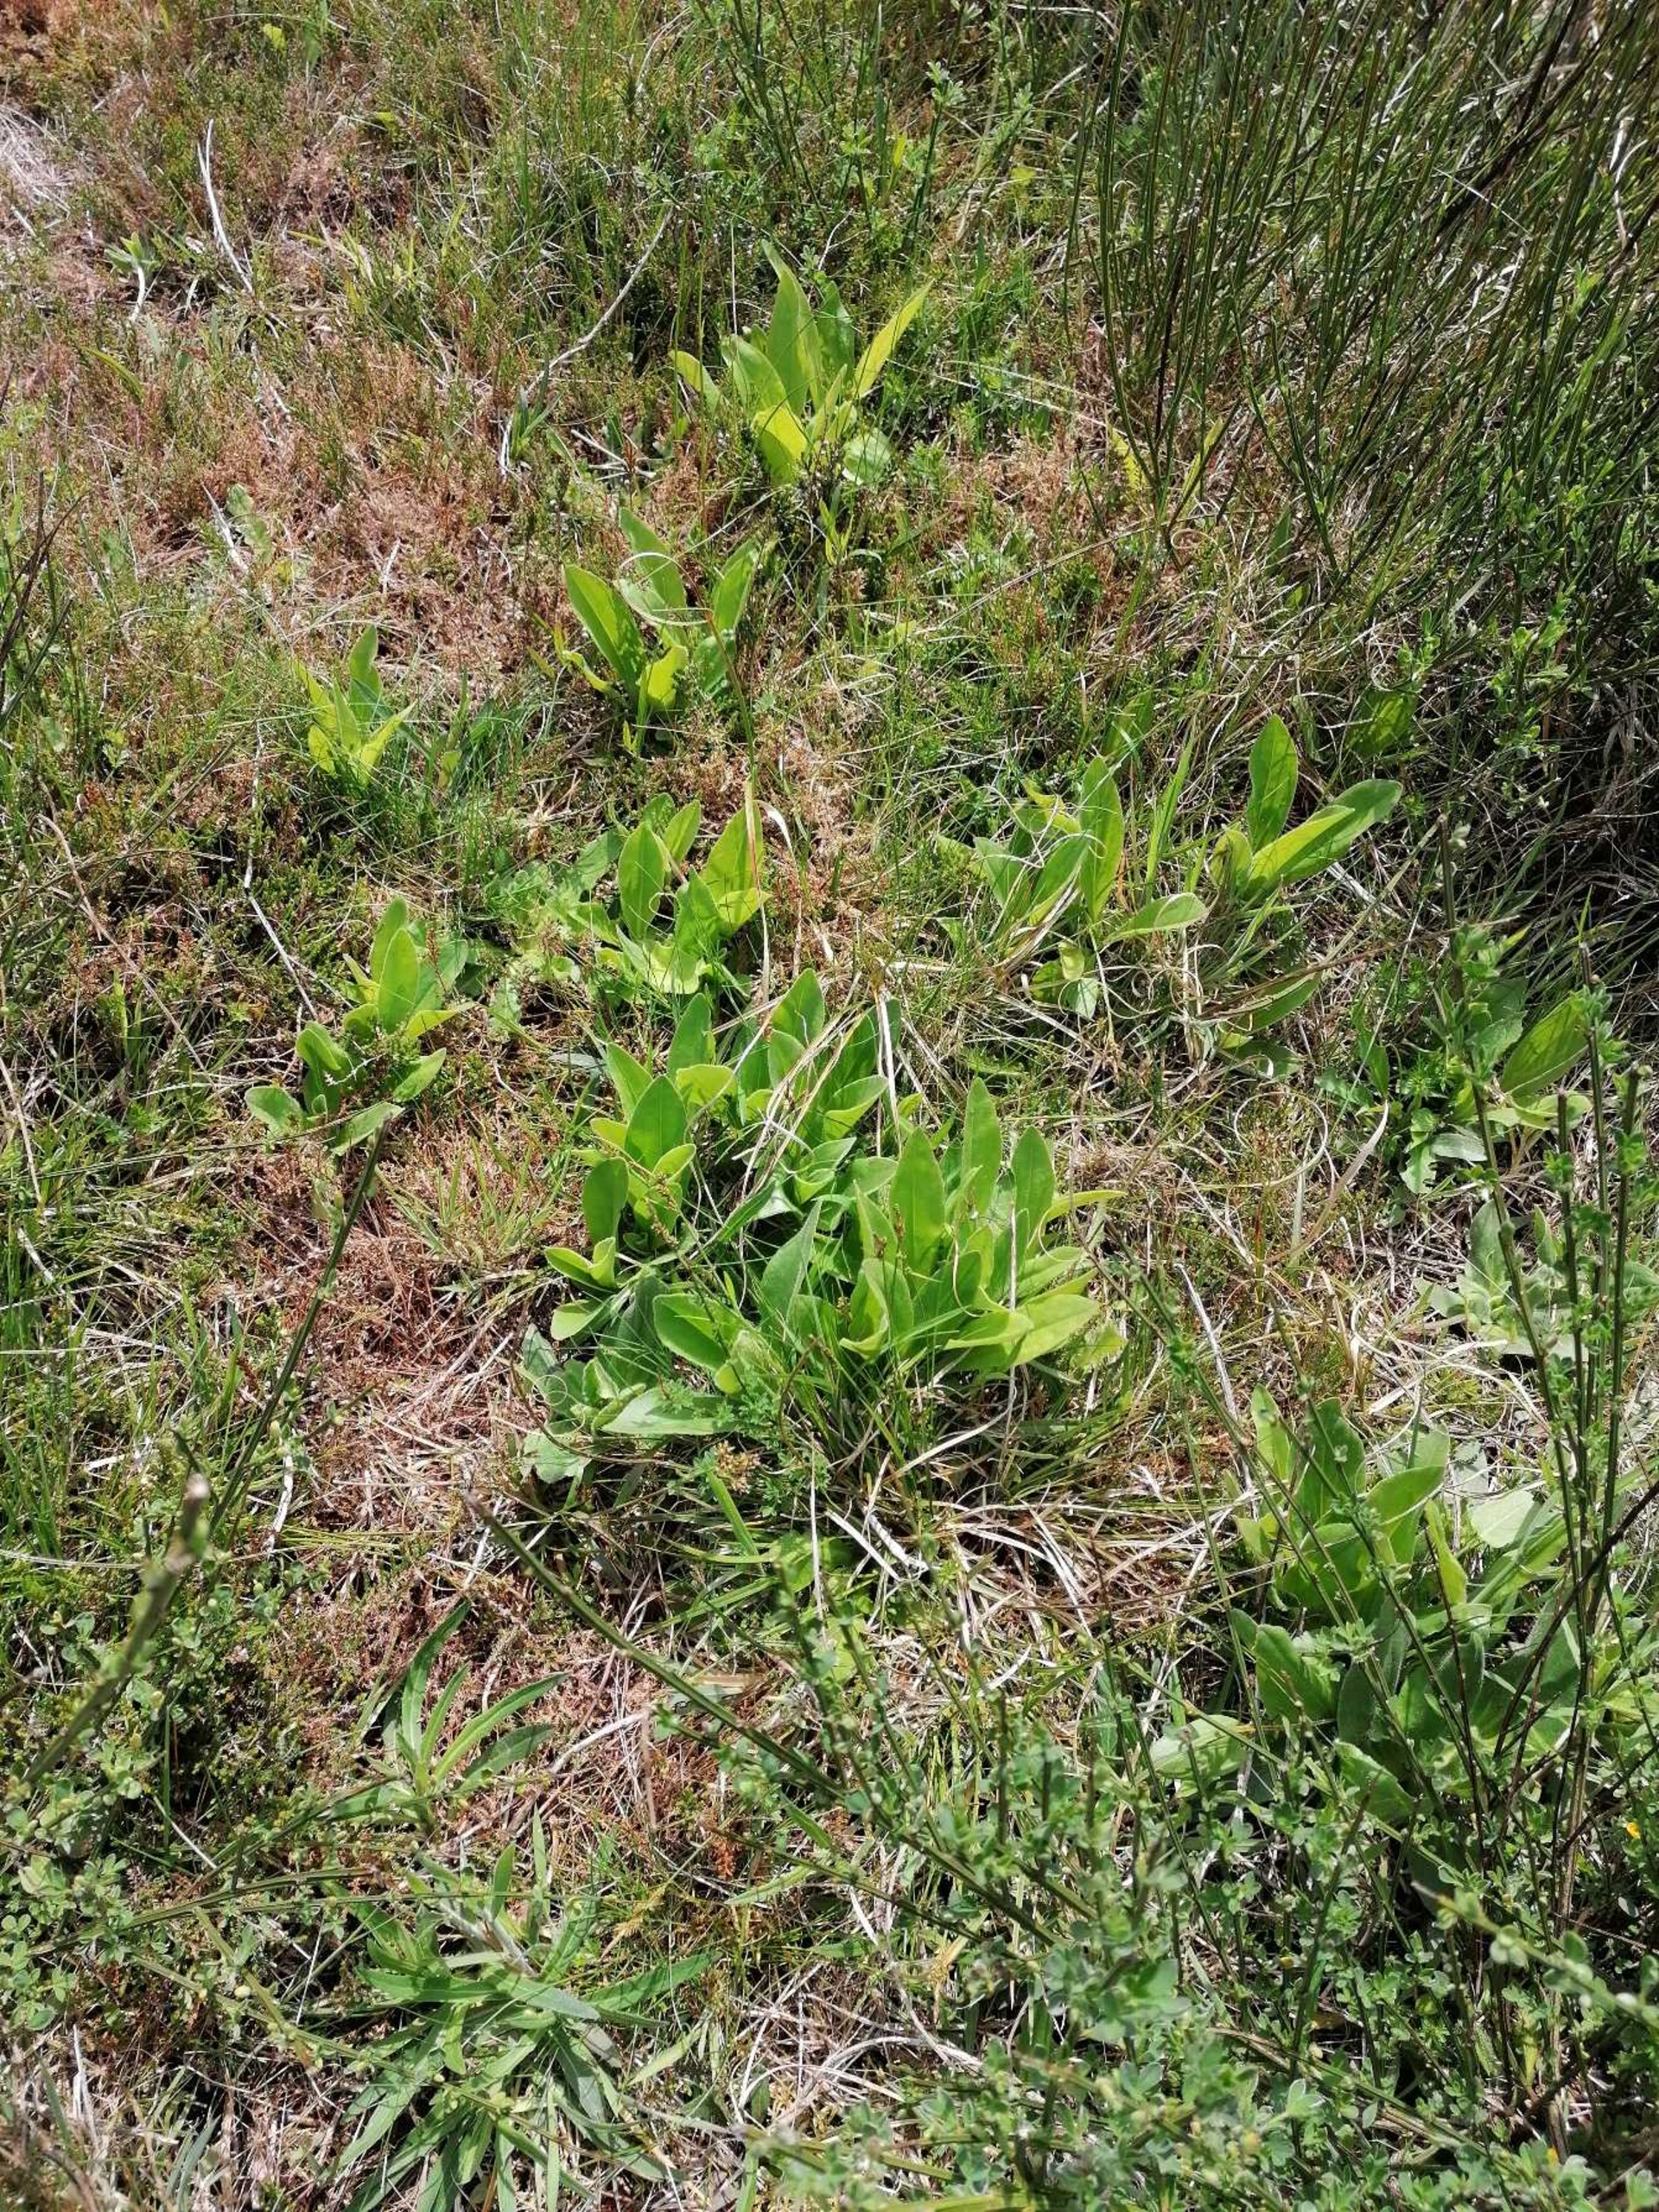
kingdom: Plantae
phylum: Tracheophyta
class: Magnoliopsida
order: Asterales
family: Asteraceae
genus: Arnica
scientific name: Arnica montana
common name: Guldblomme
